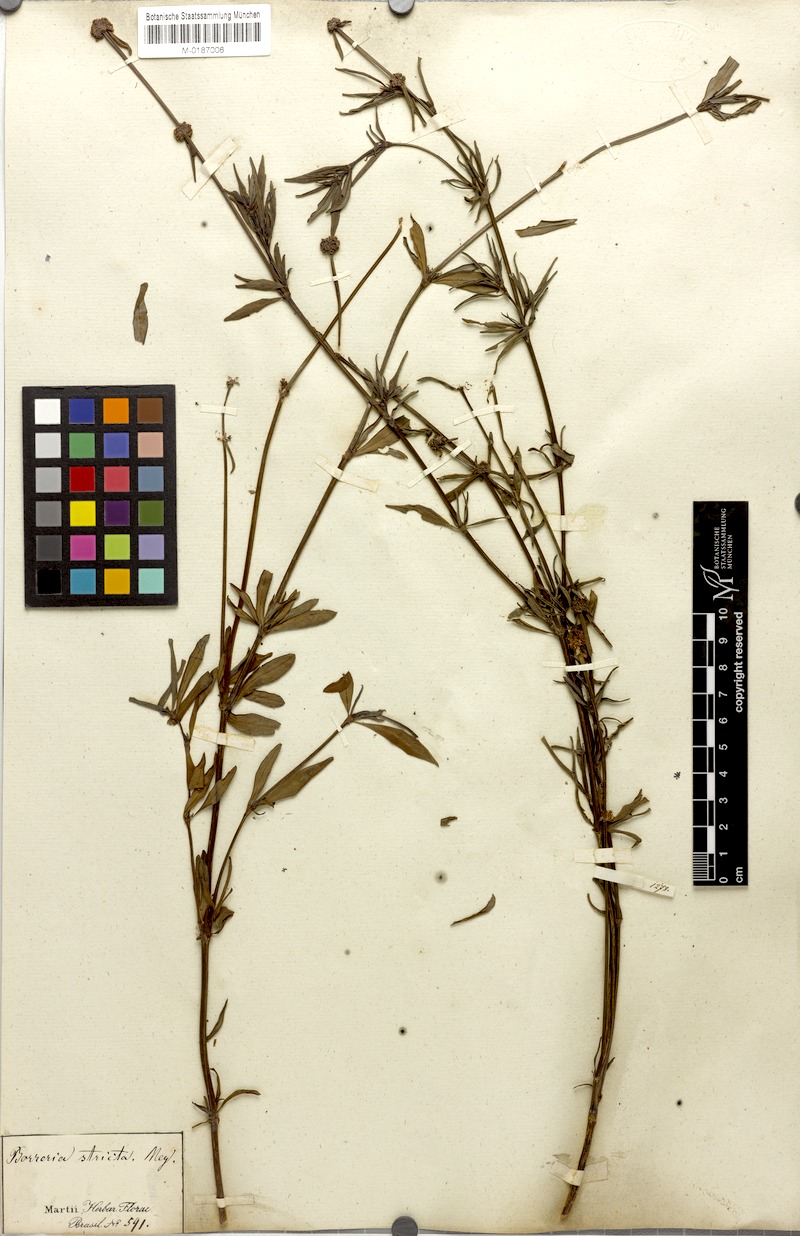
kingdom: Plantae
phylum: Tracheophyta
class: Magnoliopsida
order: Gentianales
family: Rubiaceae
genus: Spermacoce
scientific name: Spermacoce verticillata
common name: Shrubby false buttonweed
